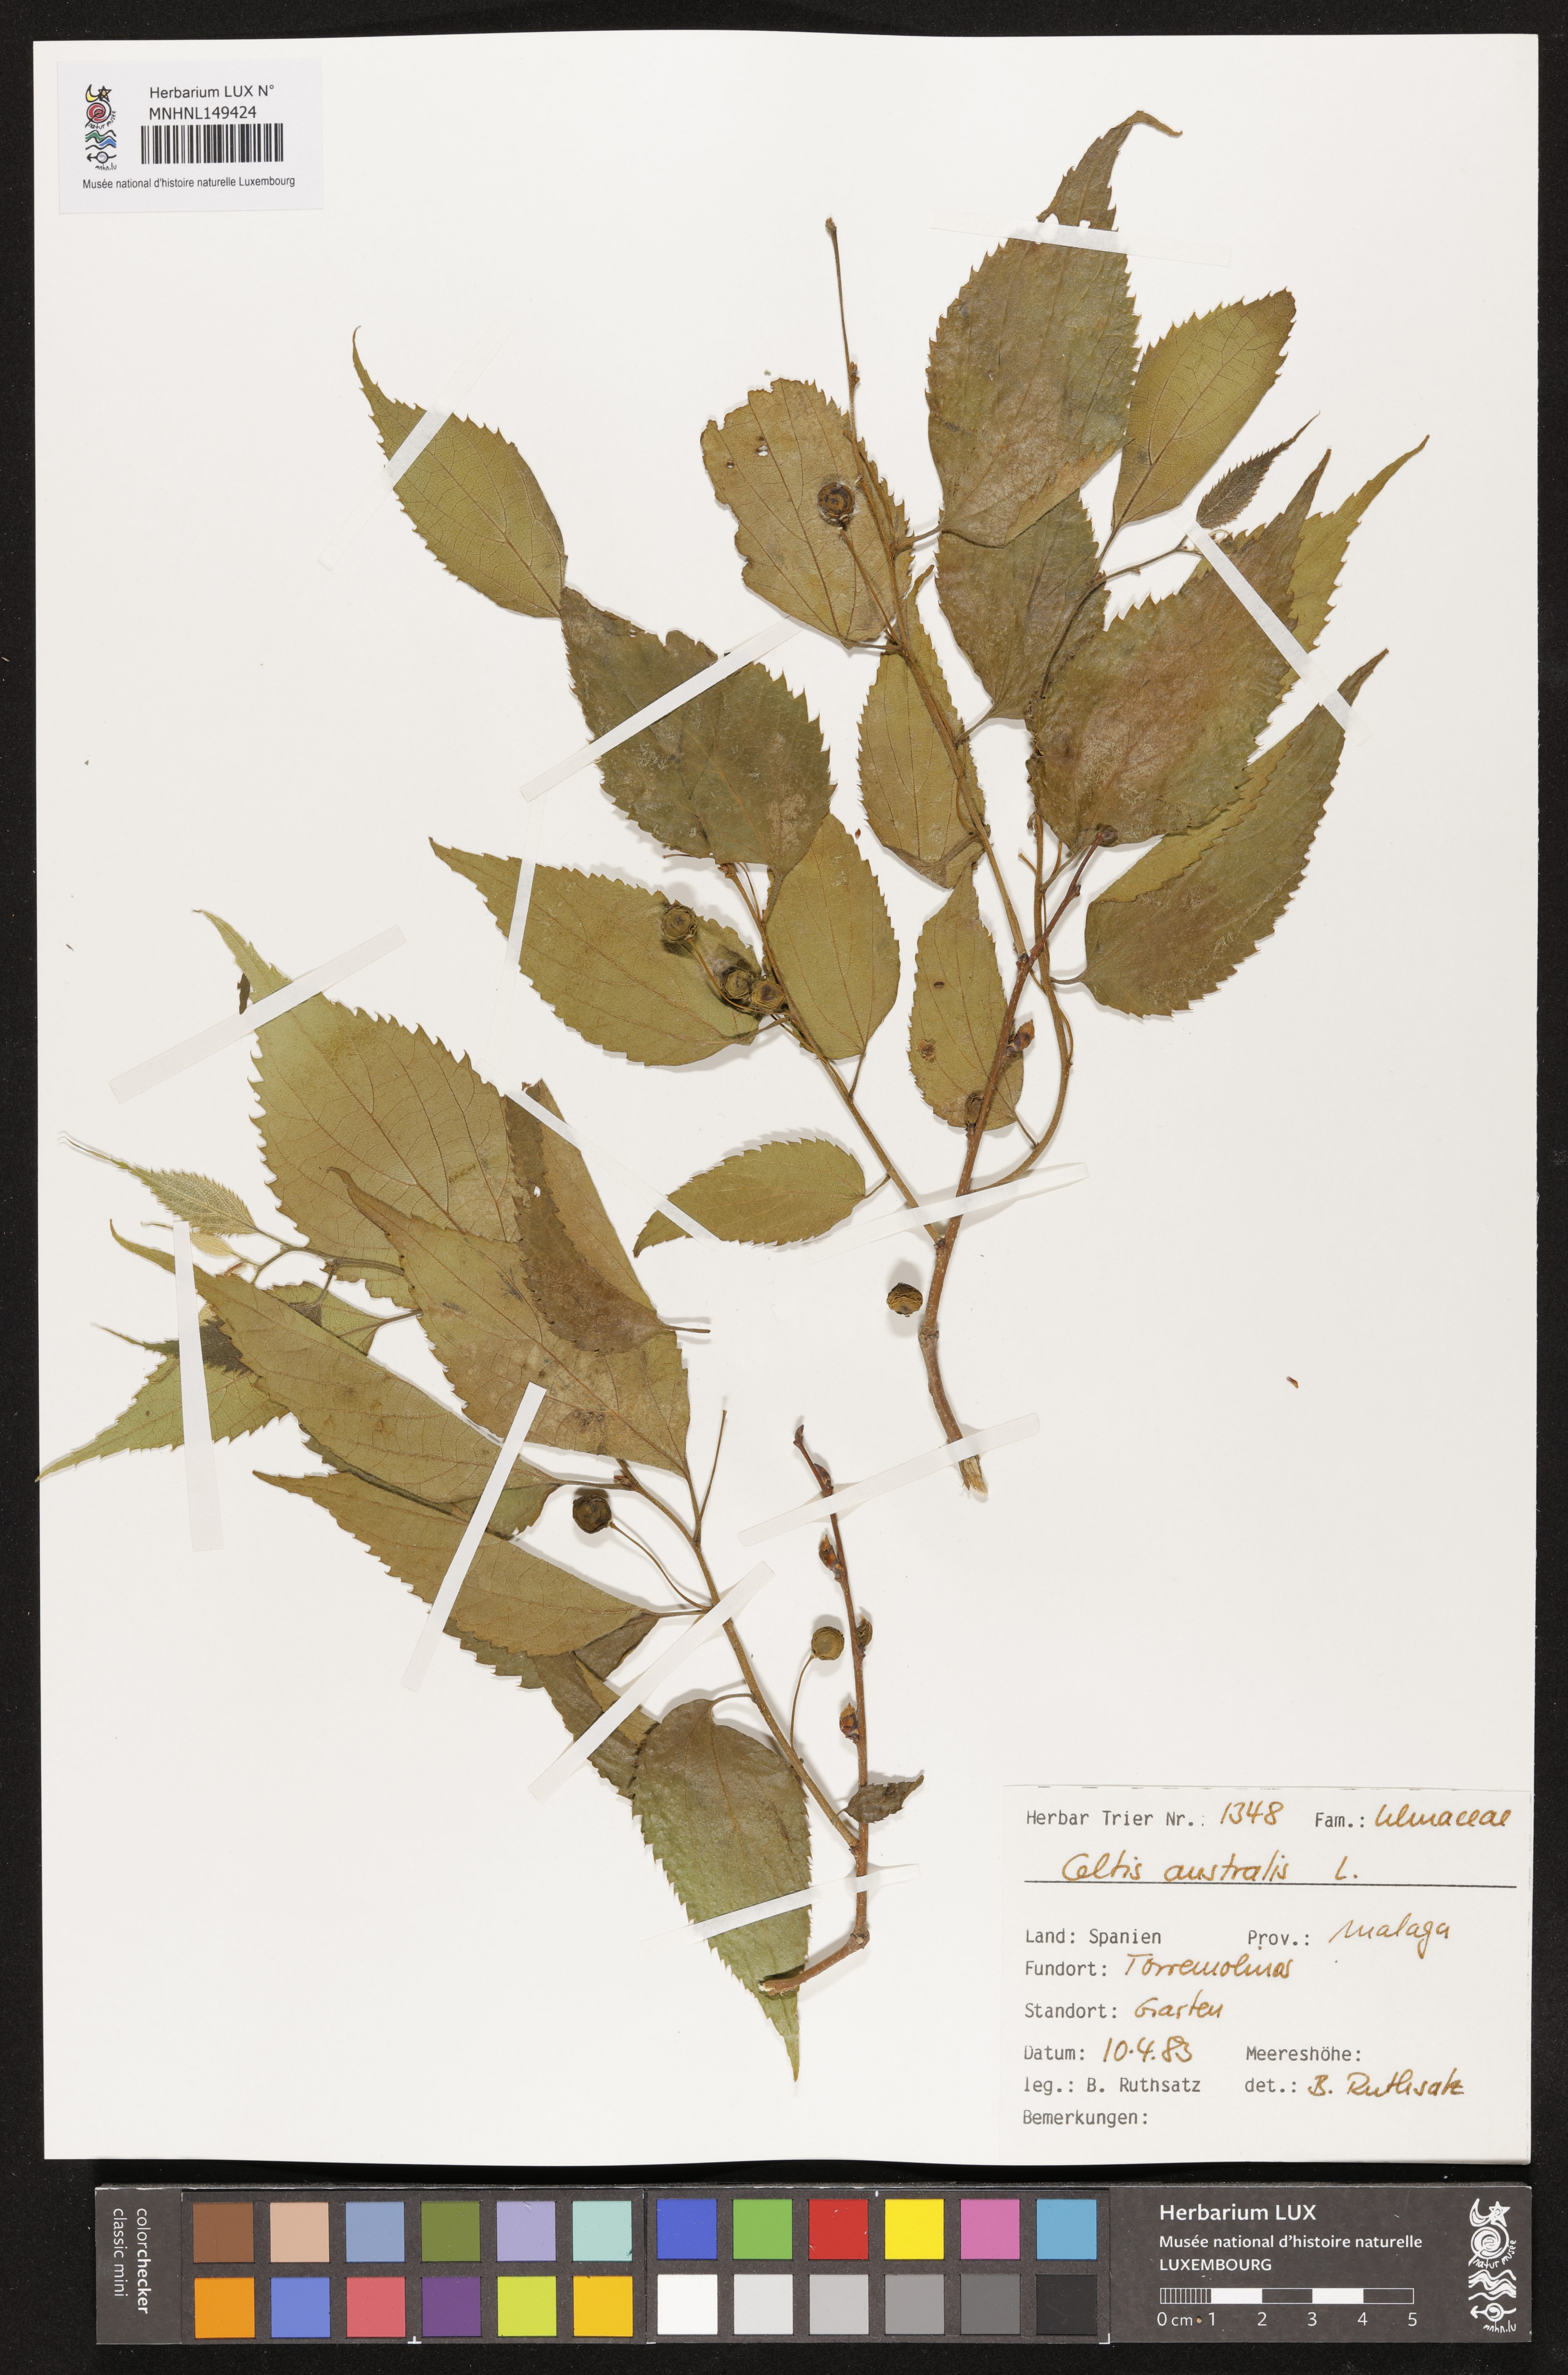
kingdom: Plantae
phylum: Tracheophyta
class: Magnoliopsida
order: Rosales
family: Cannabaceae
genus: Celtis
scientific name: Celtis australis
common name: European hackberry
